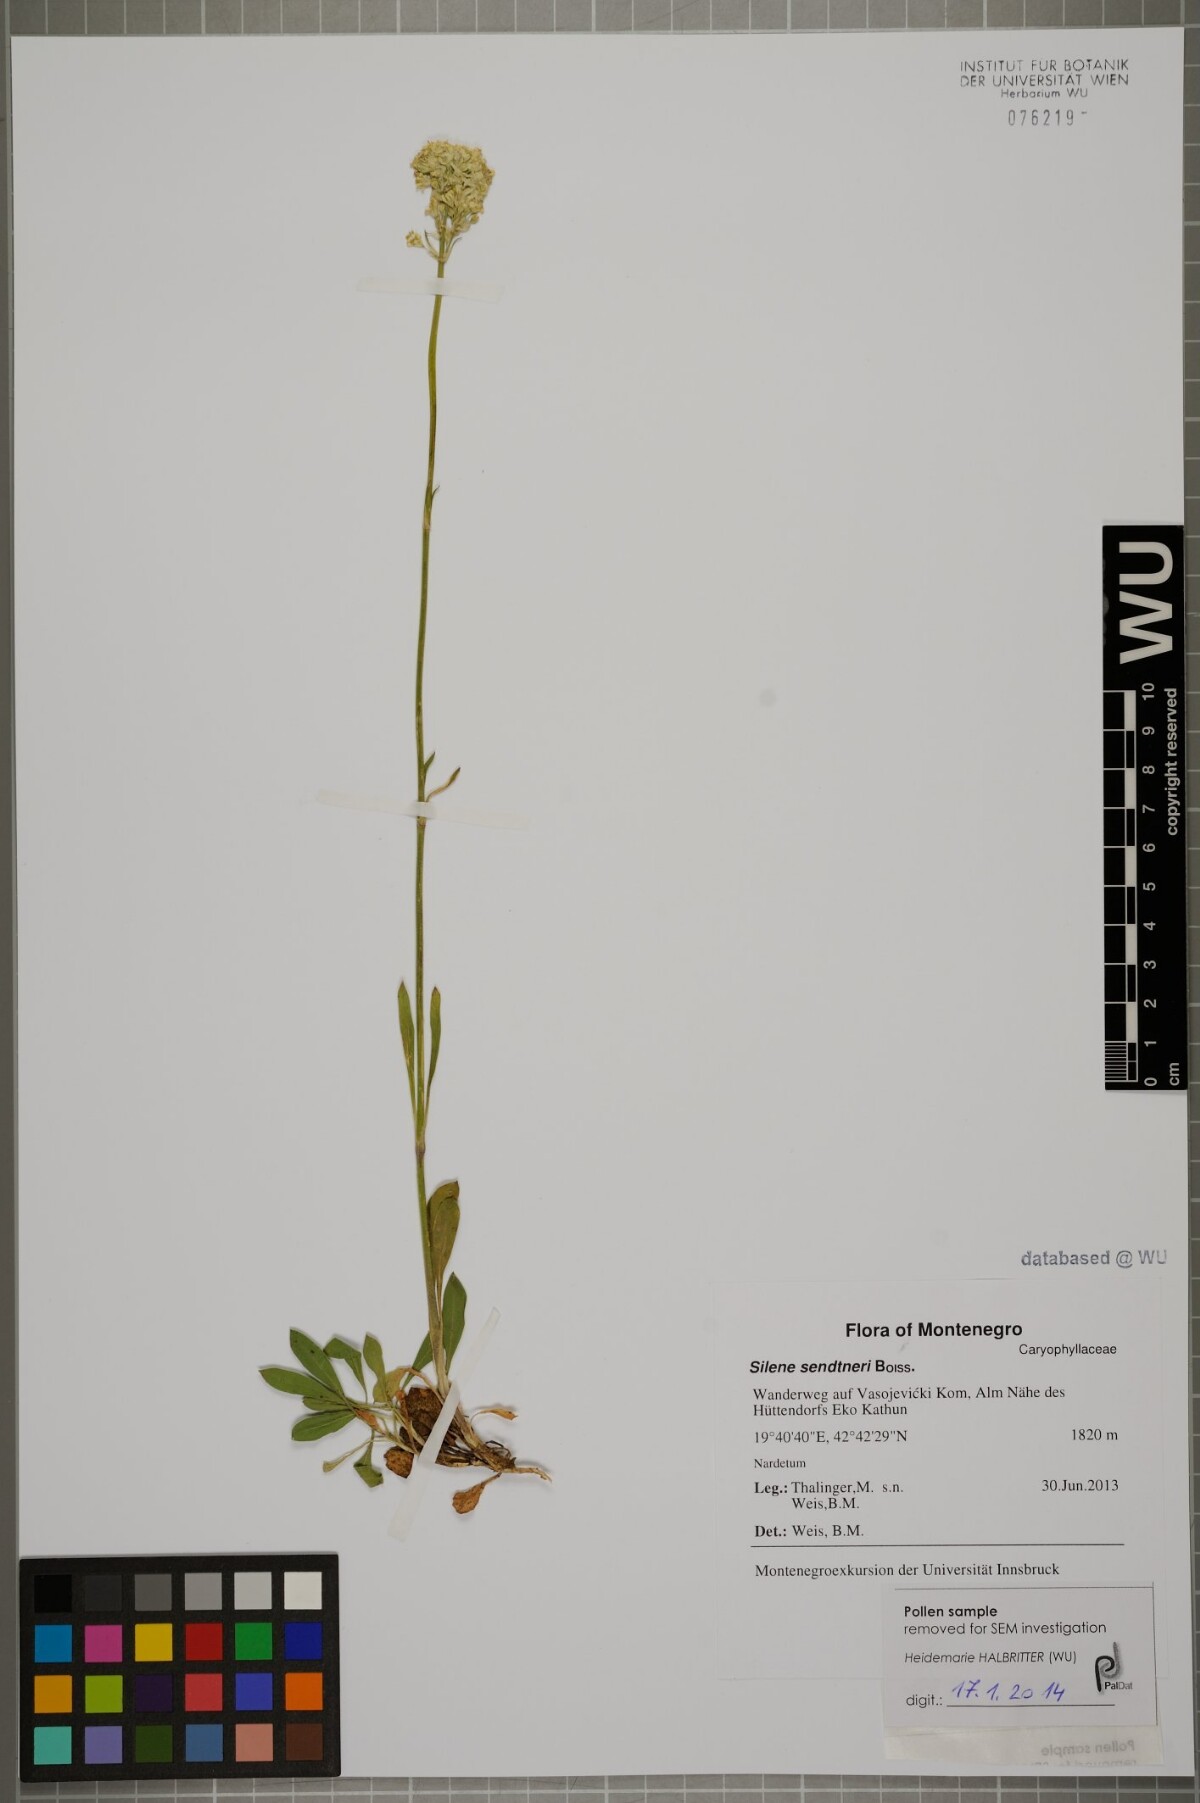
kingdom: Plantae
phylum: Tracheophyta
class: Magnoliopsida
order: Caryophyllales
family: Caryophyllaceae
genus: Silene
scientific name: Silene sendtneri
